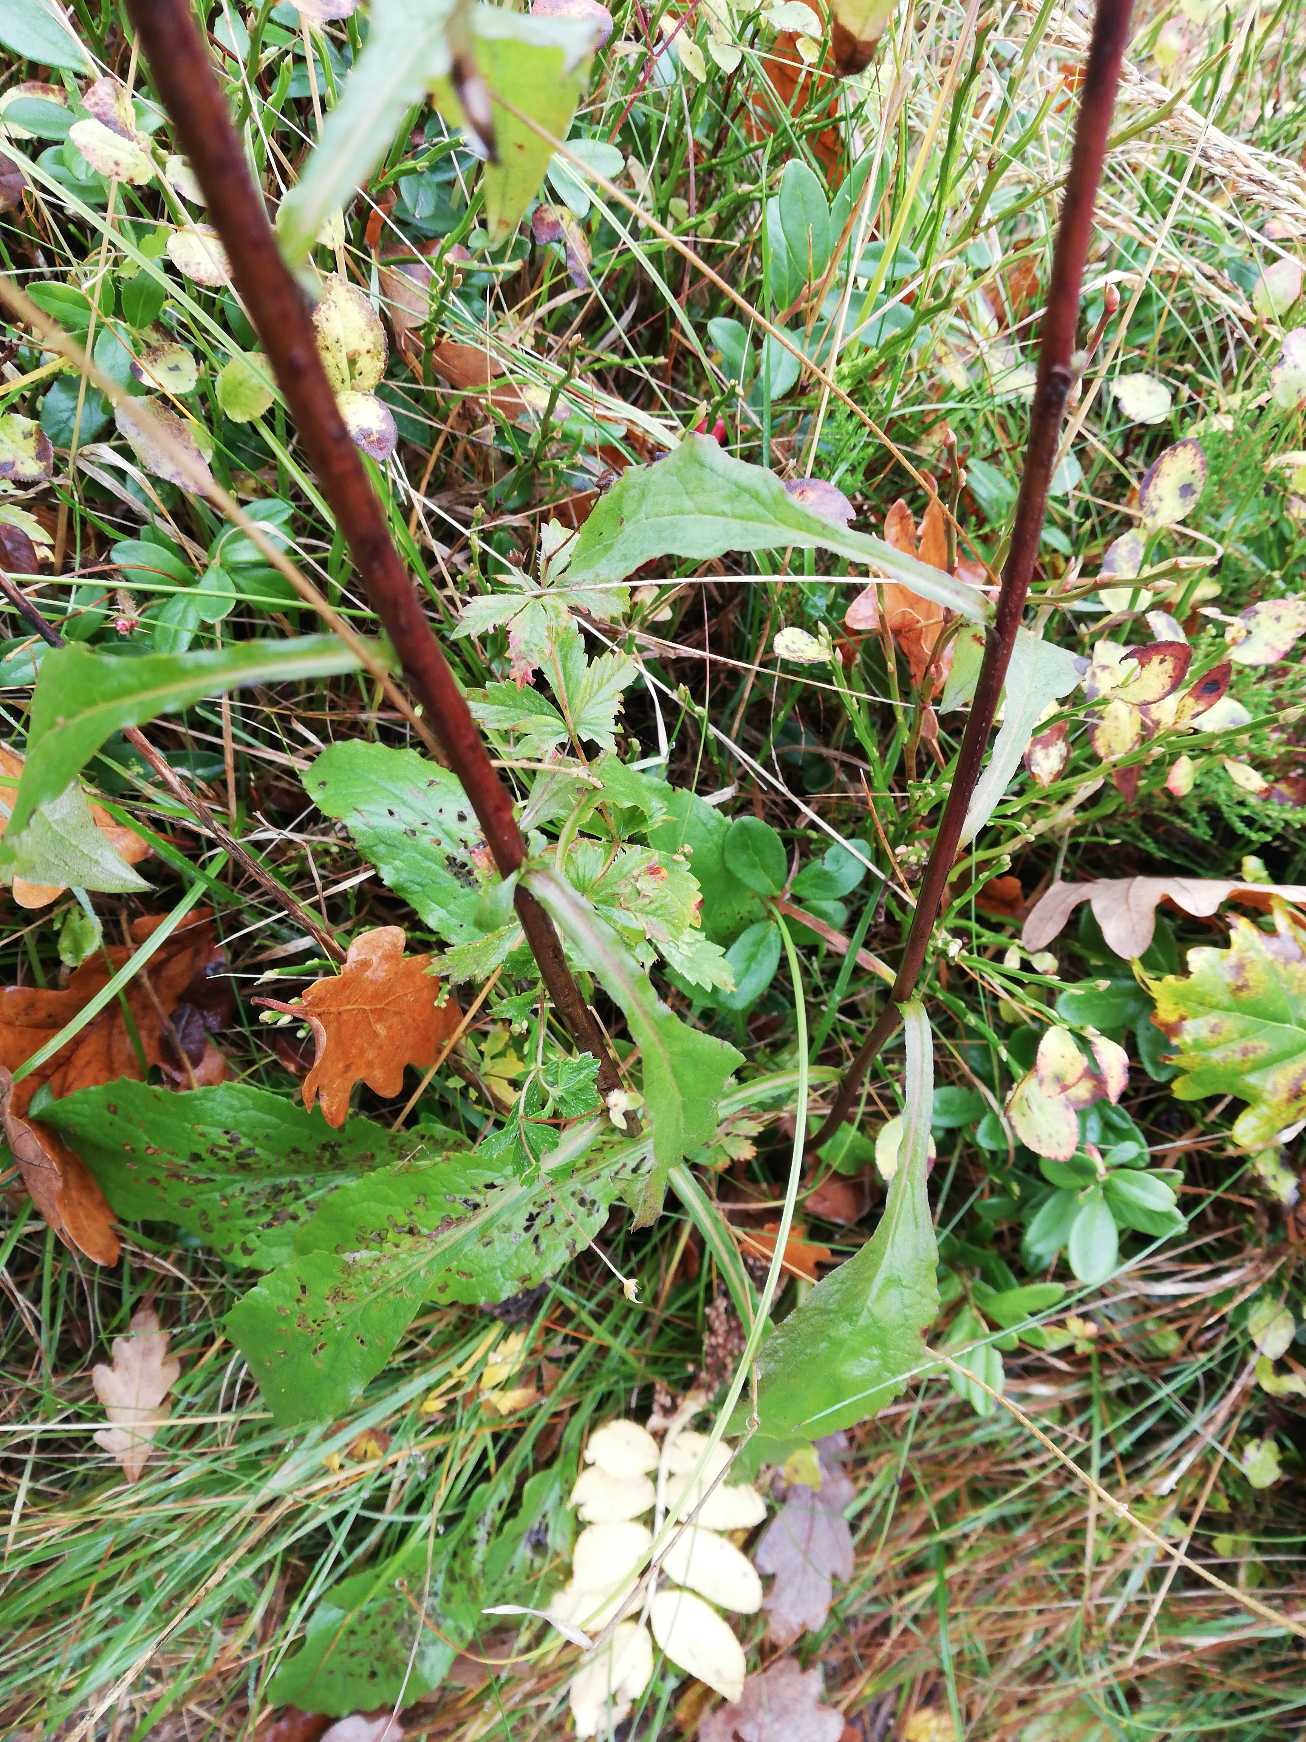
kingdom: Plantae
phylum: Tracheophyta
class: Magnoliopsida
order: Asterales
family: Asteraceae
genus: Solidago
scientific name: Solidago virgaurea
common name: Almindelig gyldenris
